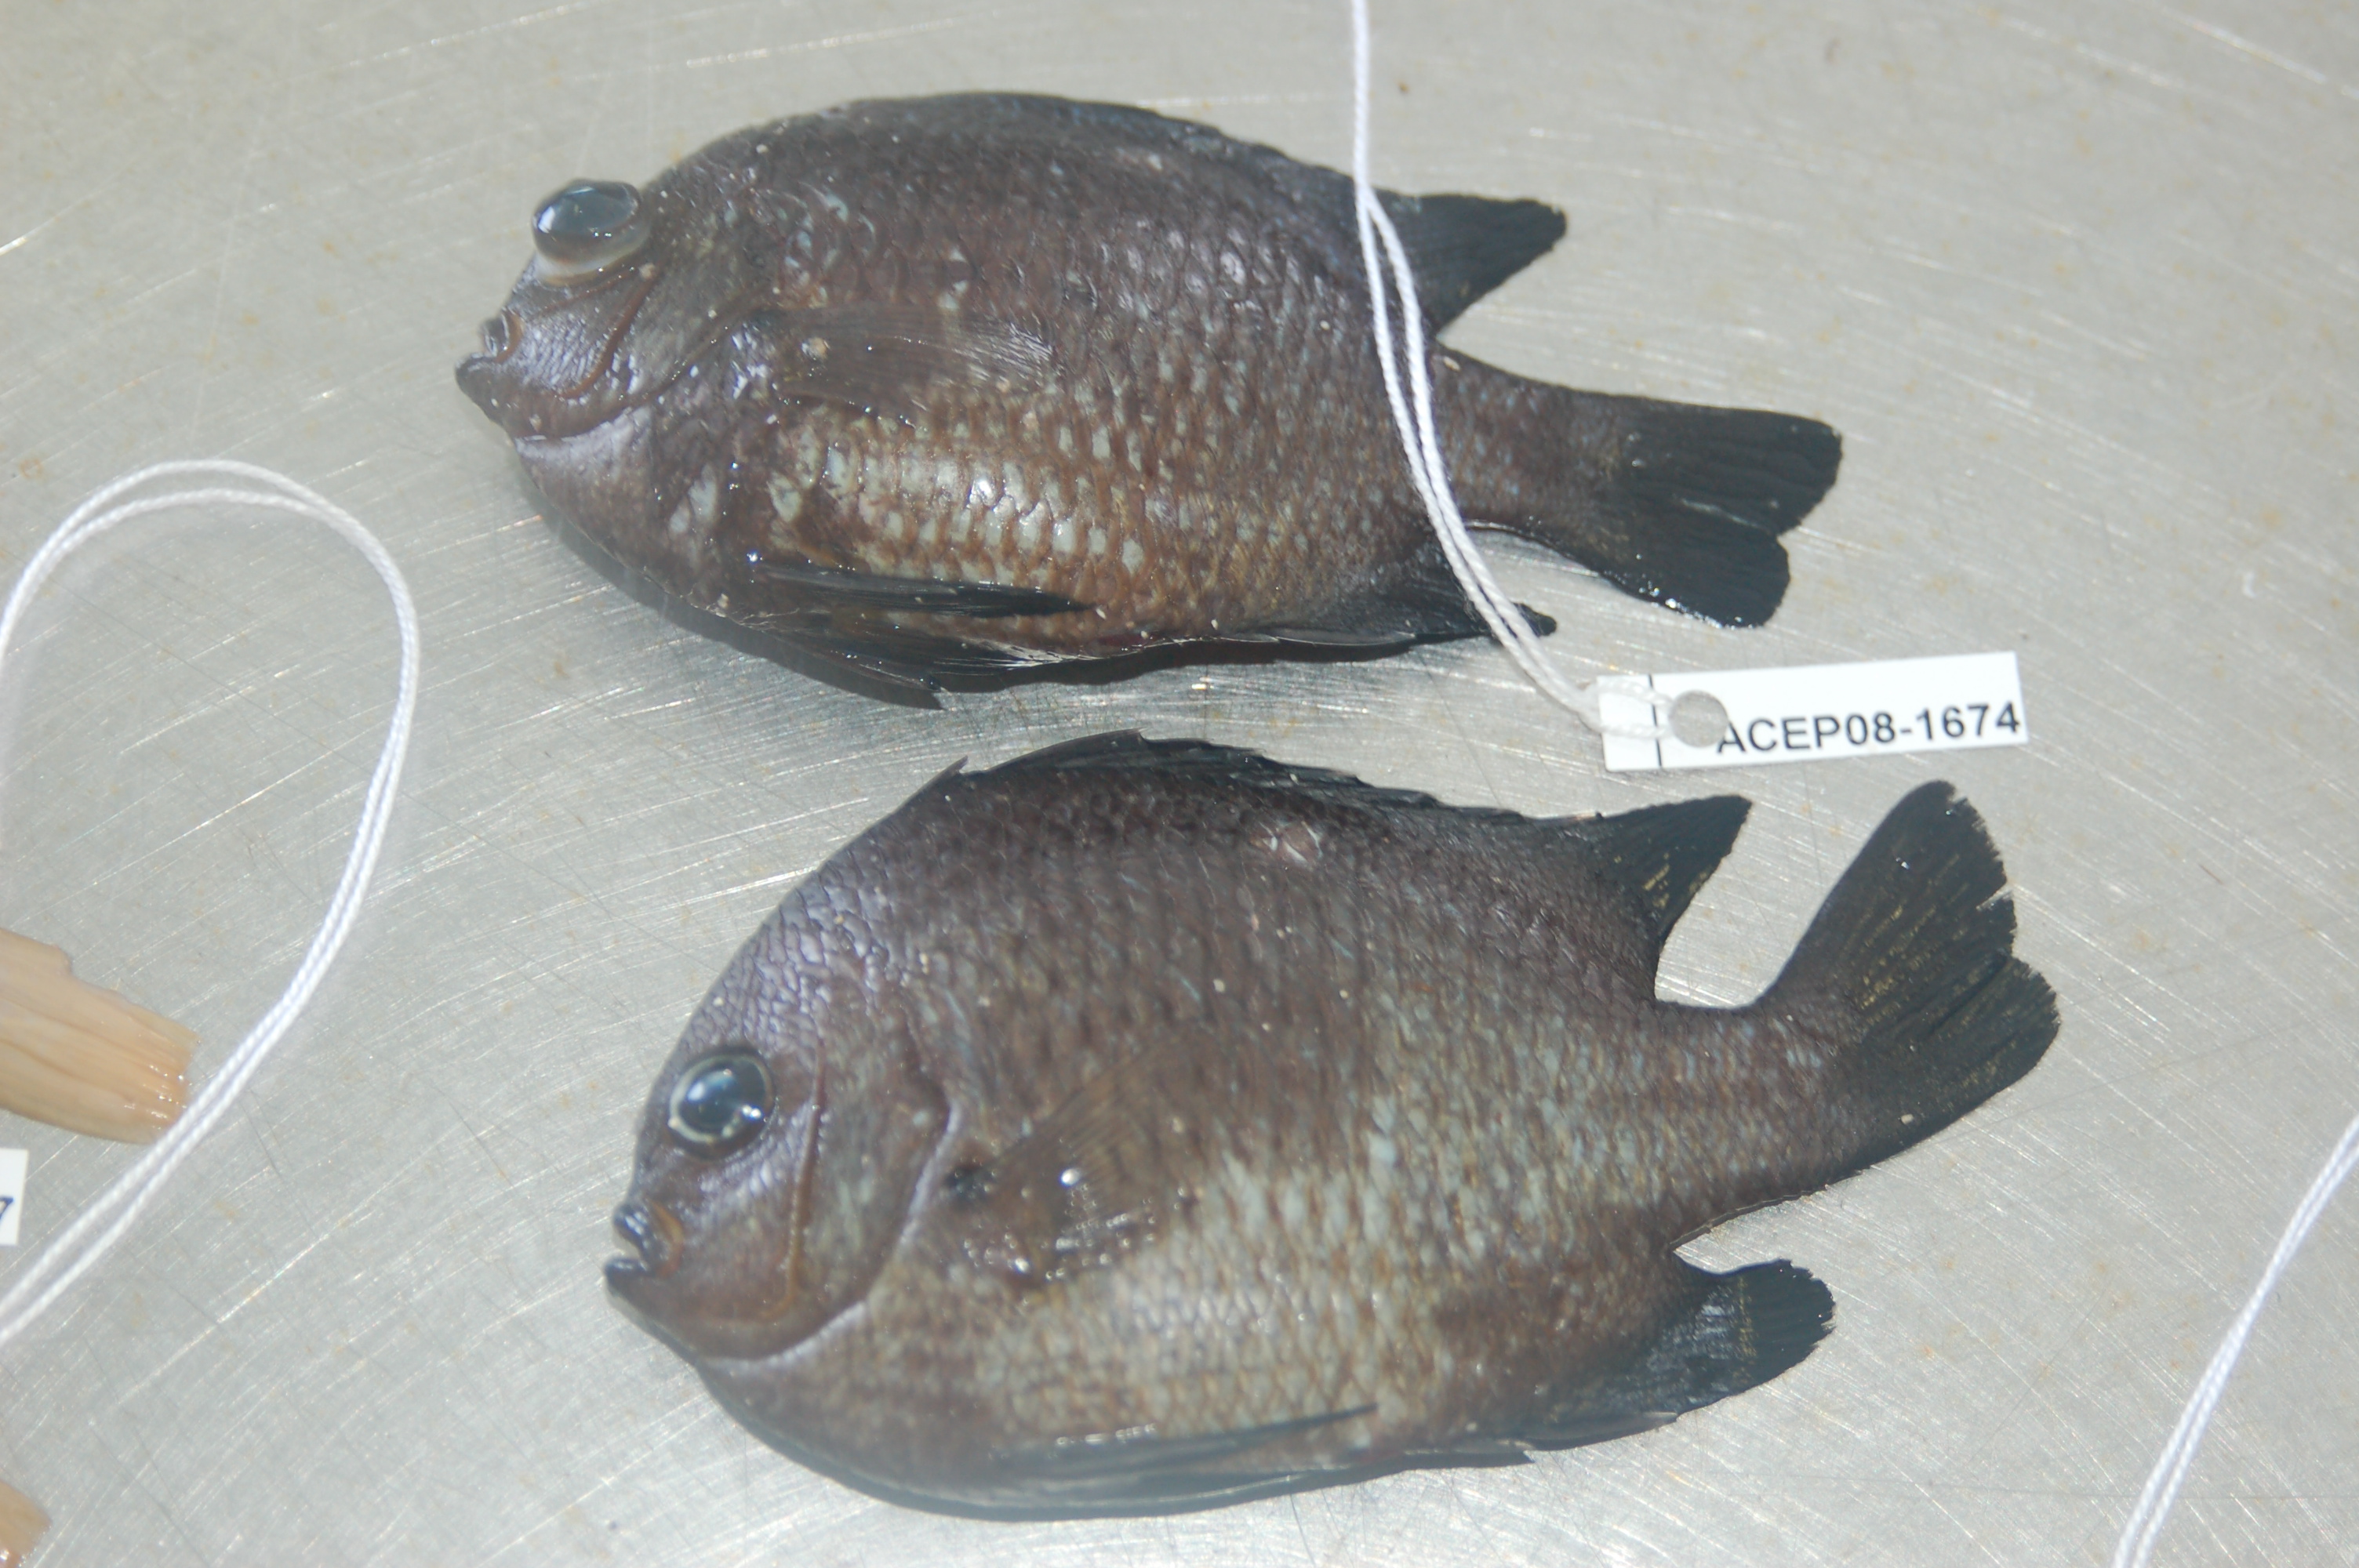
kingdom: Animalia
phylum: Chordata
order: Perciformes
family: Pomacentridae
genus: Dascyllus
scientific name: Dascyllus trimaculatus
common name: Threespot dascyllus
